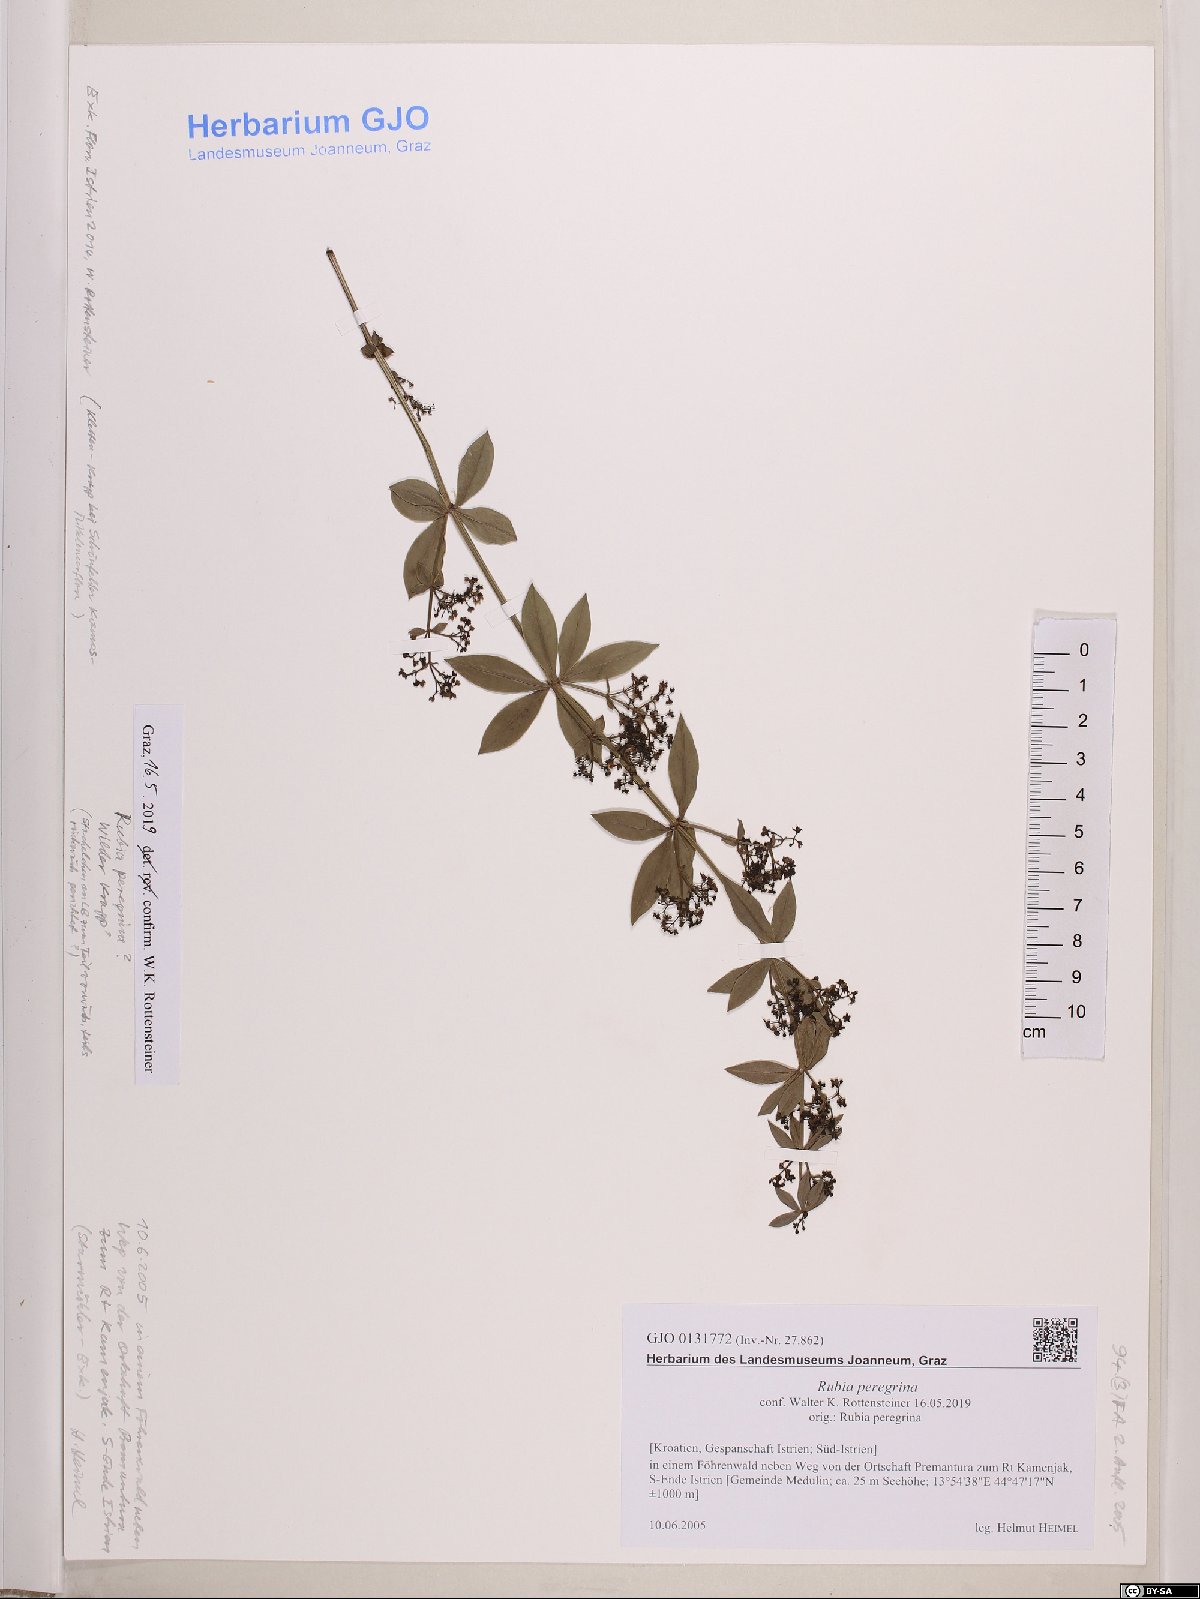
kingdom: Plantae
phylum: Tracheophyta
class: Magnoliopsida
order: Gentianales
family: Rubiaceae
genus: Rubia
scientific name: Rubia peregrina
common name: Wild madder
